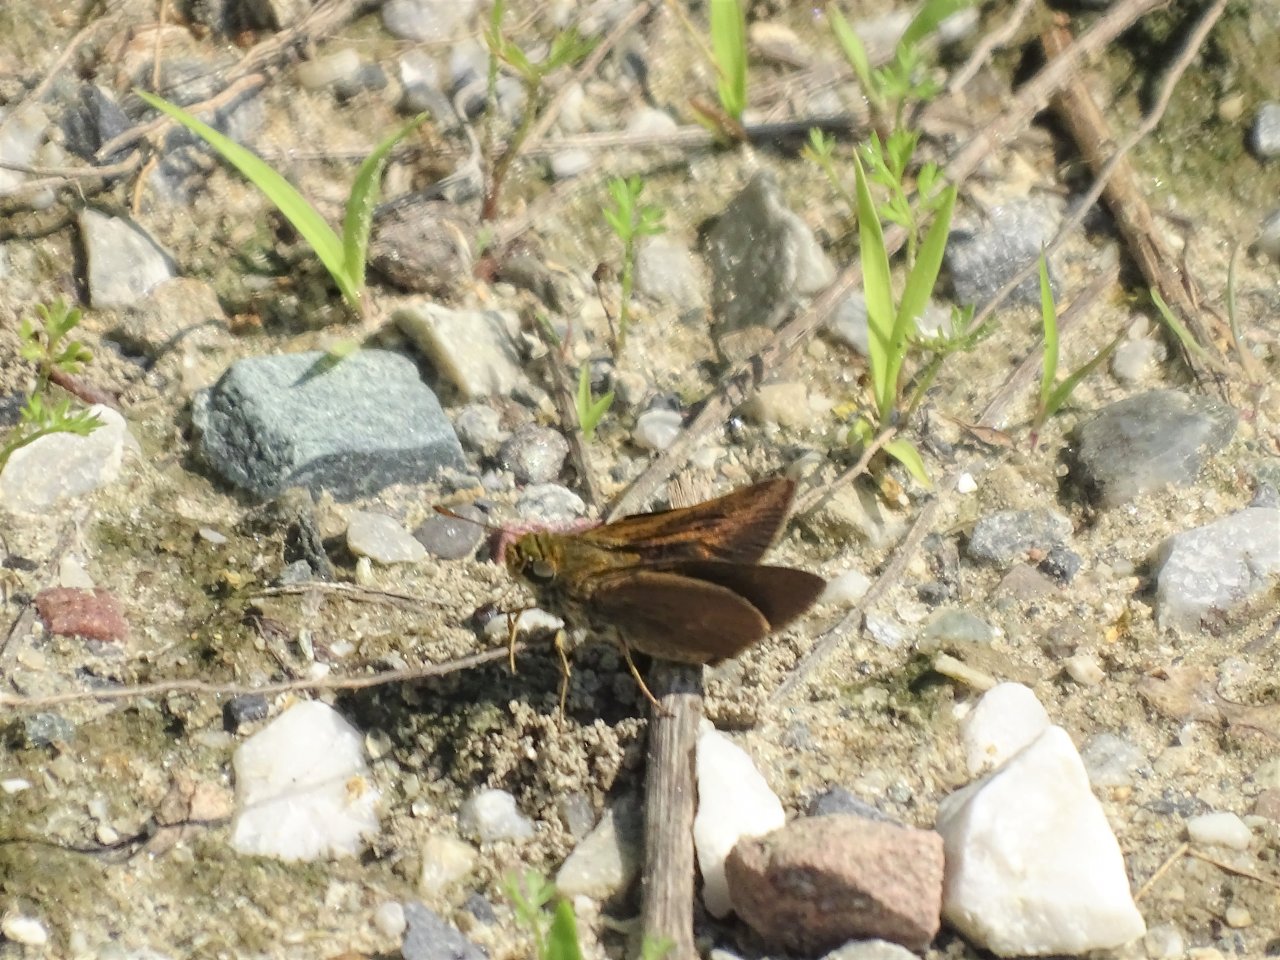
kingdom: Animalia
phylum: Arthropoda
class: Insecta
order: Lepidoptera
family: Hesperiidae
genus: Euphyes
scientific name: Euphyes vestris
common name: Dun Skipper
